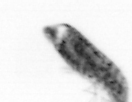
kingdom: Animalia
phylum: Arthropoda
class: Copepoda
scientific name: Copepoda
